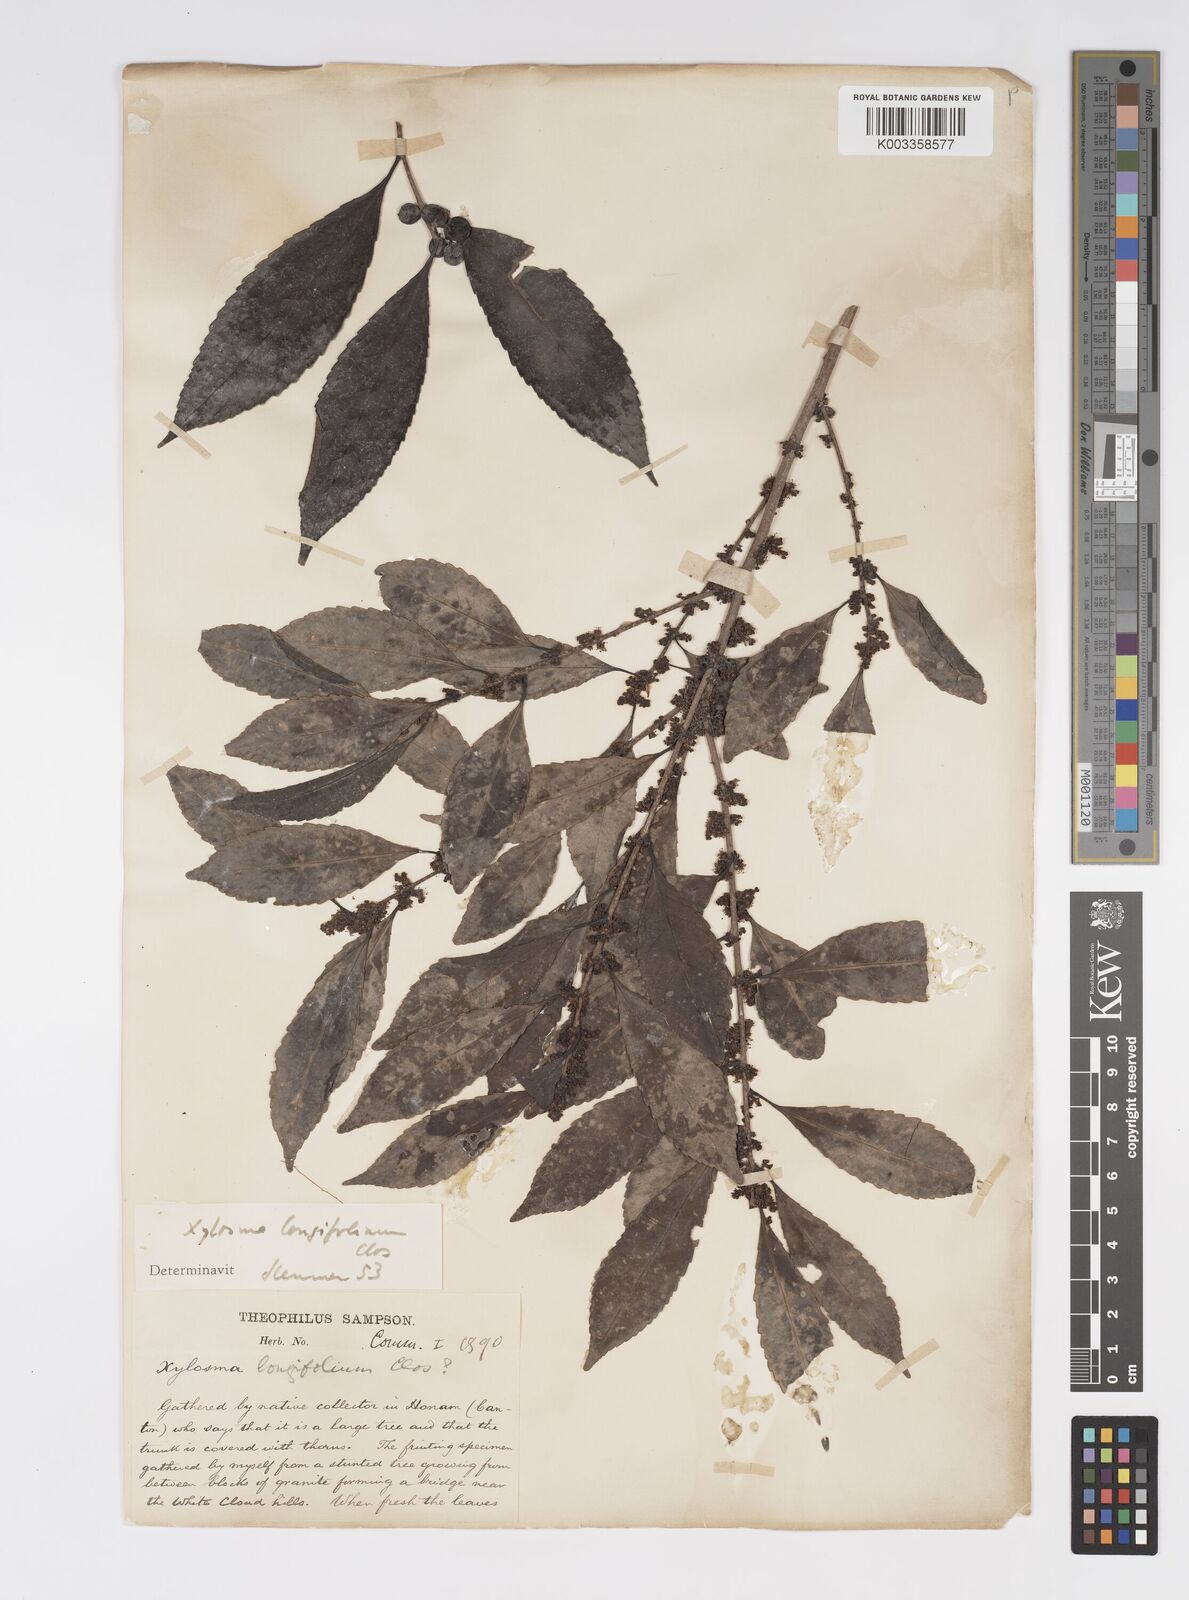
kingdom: Plantae
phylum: Tracheophyta
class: Magnoliopsida
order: Malpighiales
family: Salicaceae
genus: Xylosma
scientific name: Xylosma longifolia
